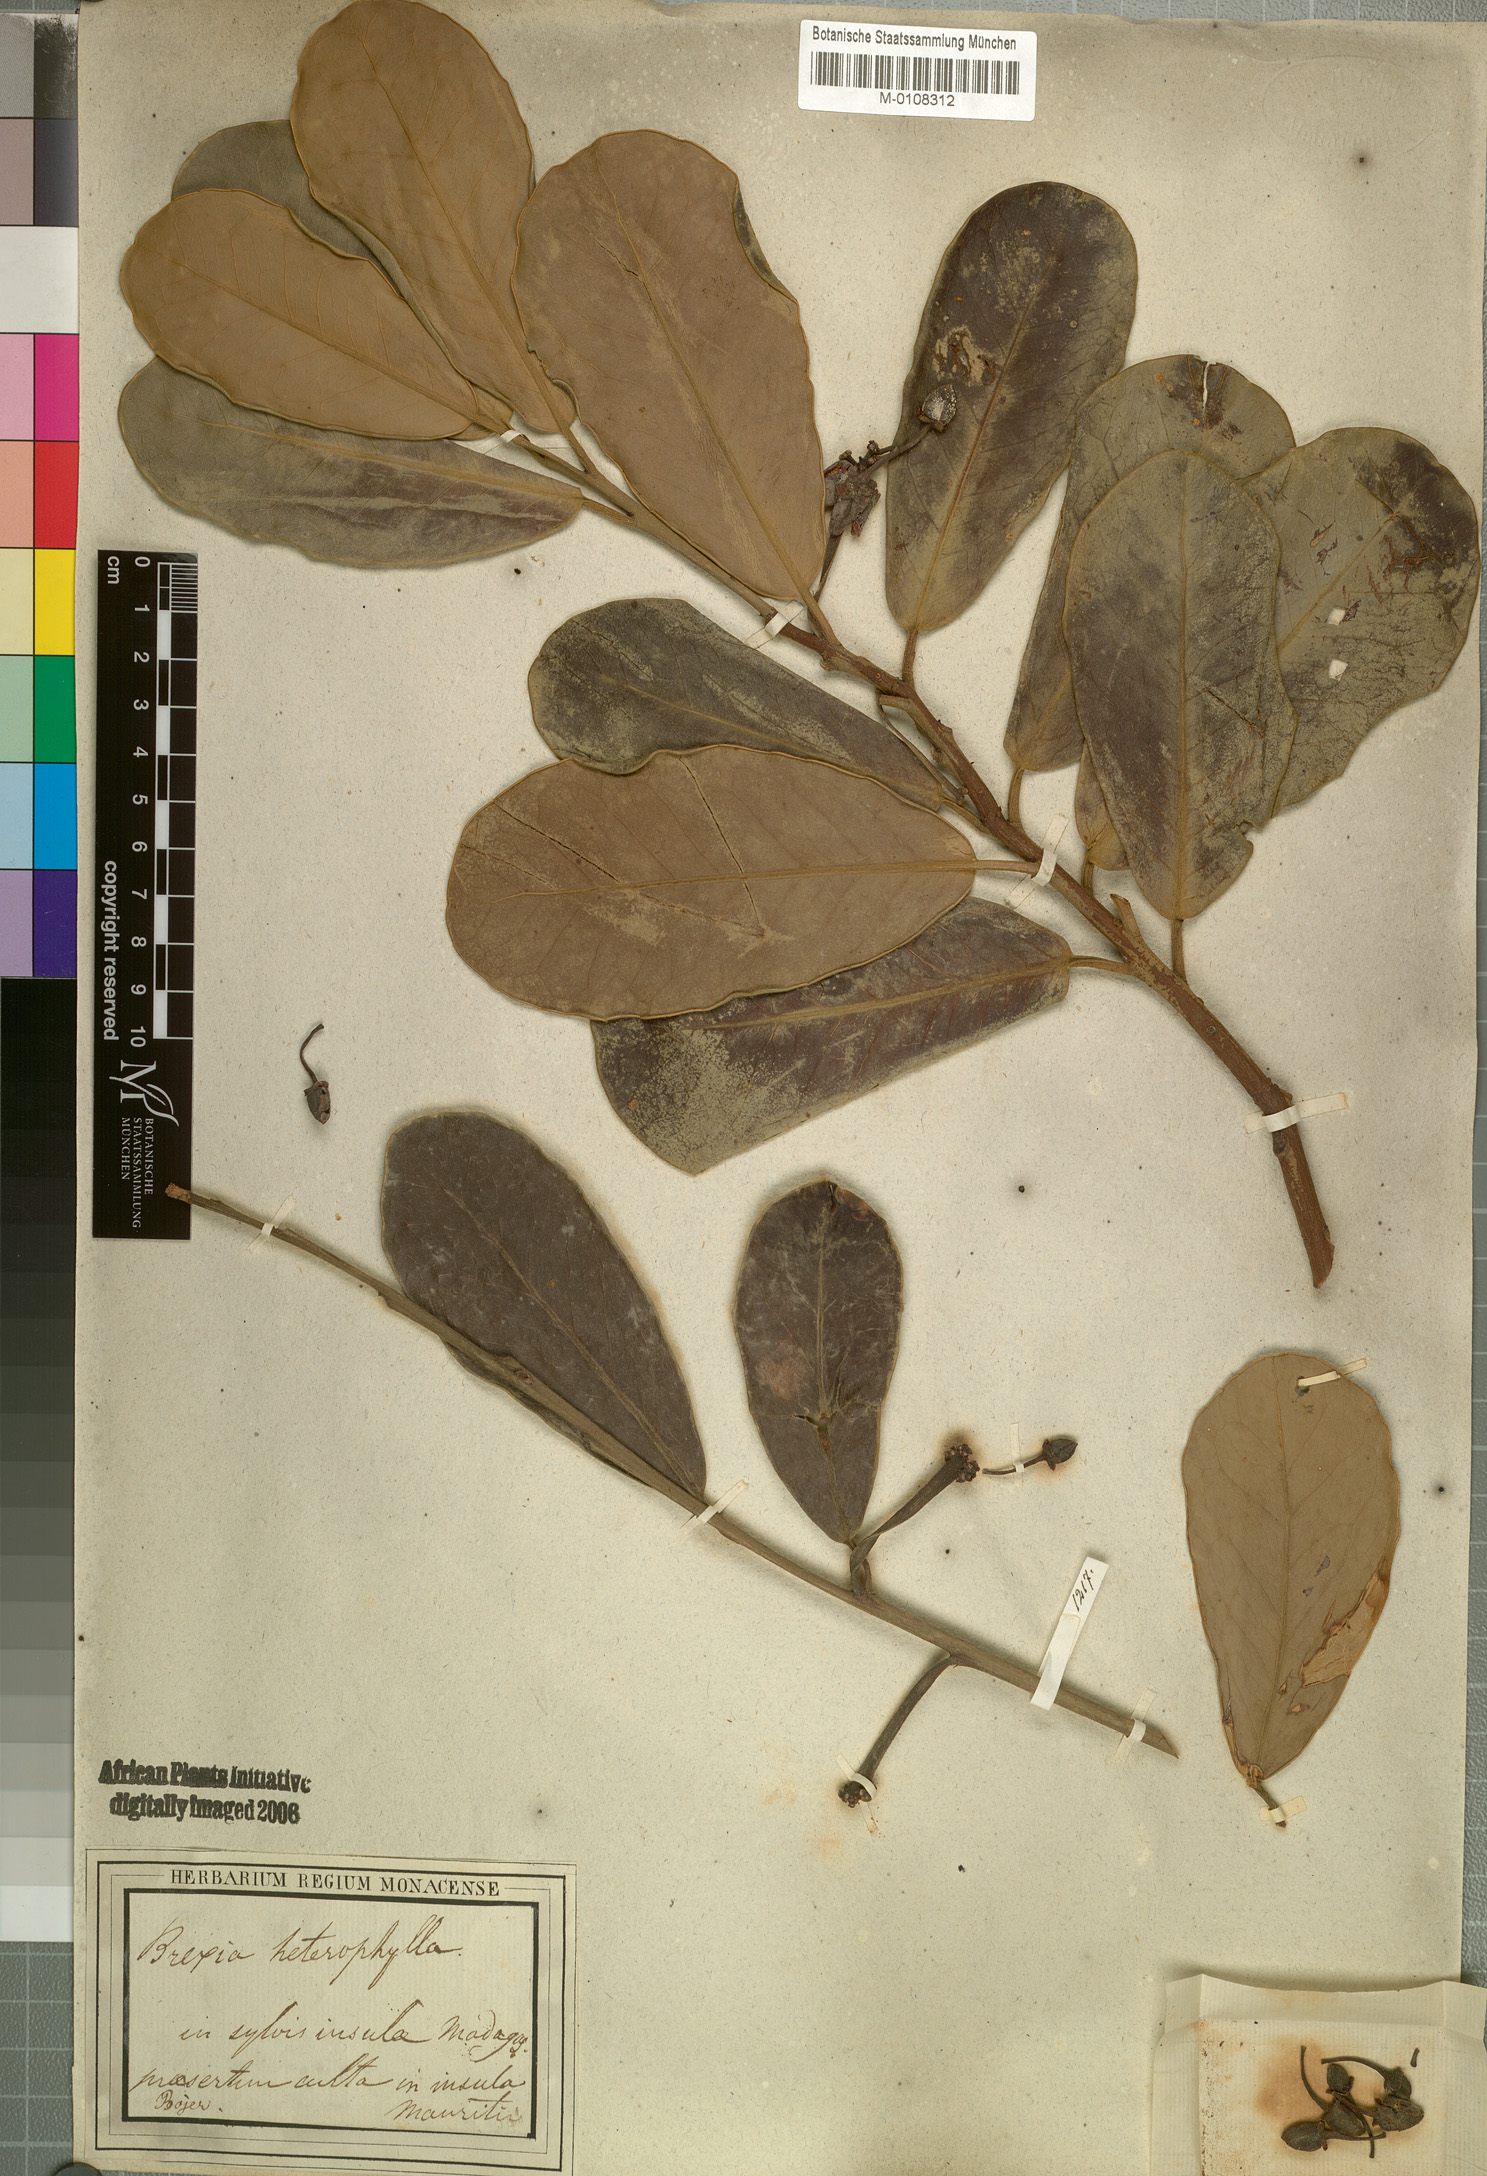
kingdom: Plantae
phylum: Tracheophyta
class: Magnoliopsida
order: Celastrales
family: Celastraceae
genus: Brexia
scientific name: Brexia madagascariensis
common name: Brexia
